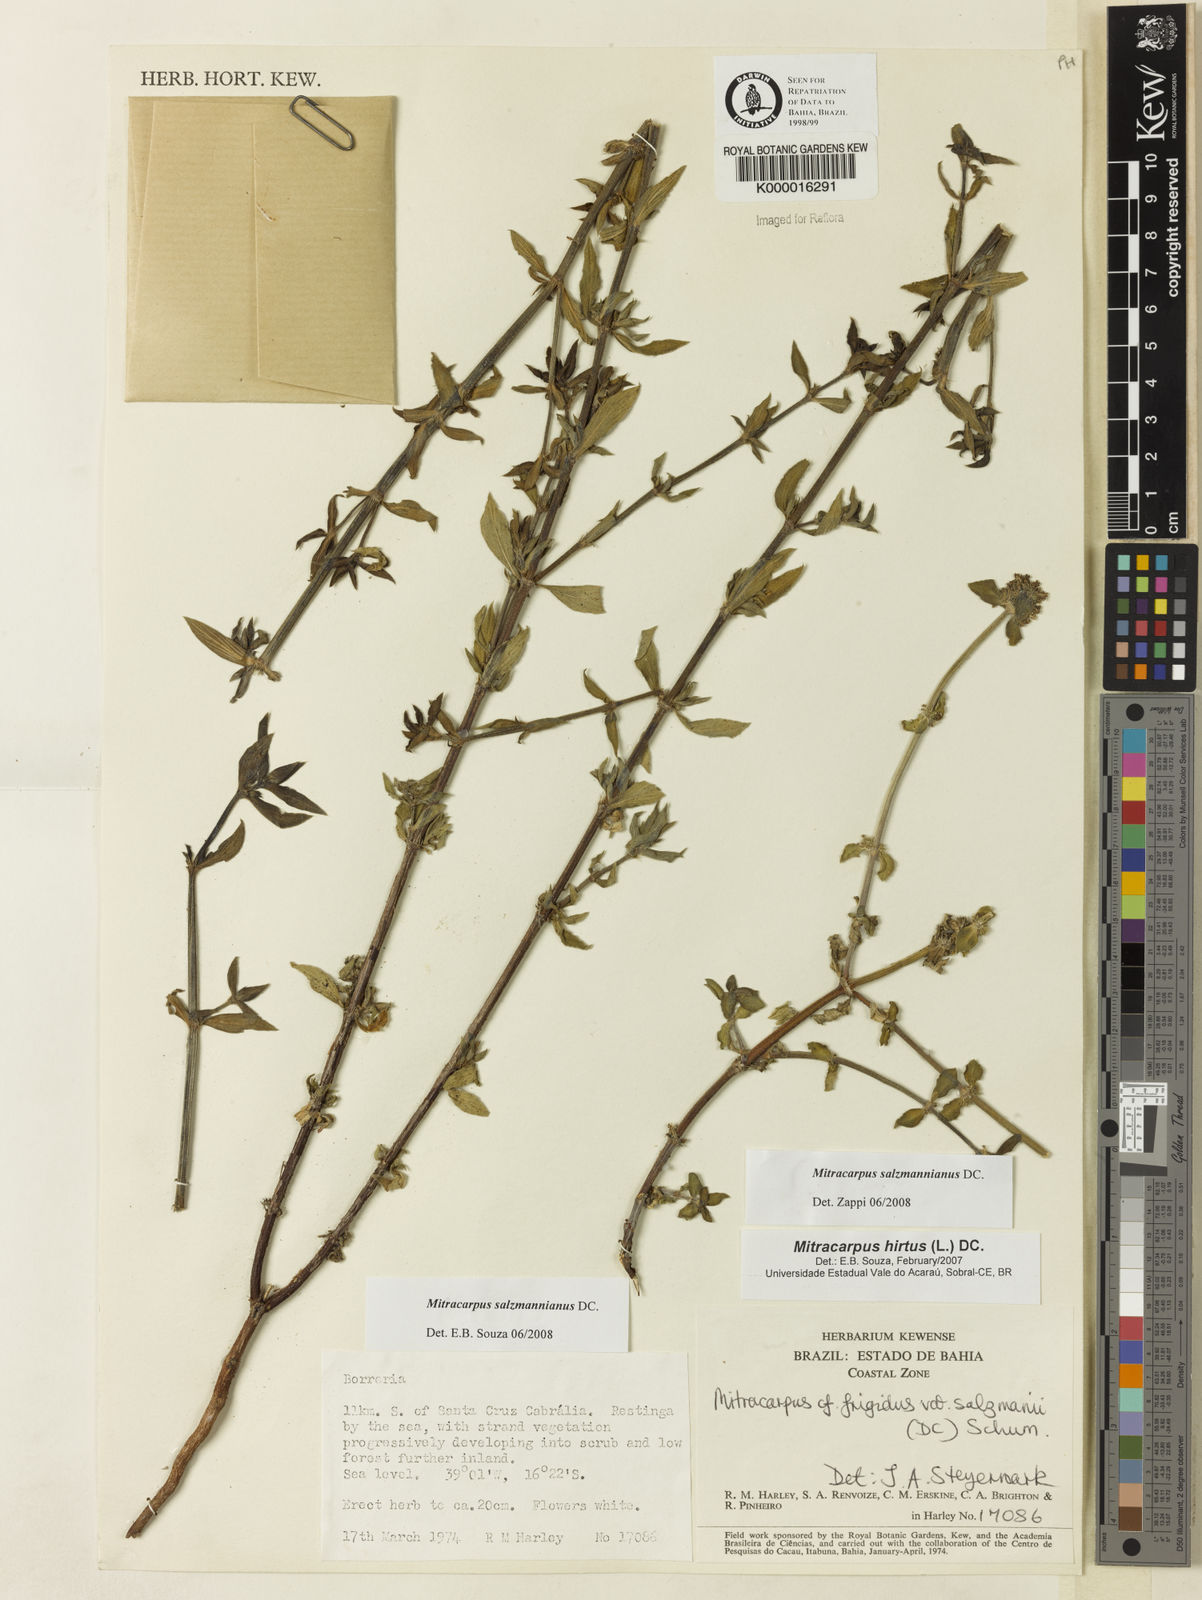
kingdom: Plantae
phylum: Tracheophyta
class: Magnoliopsida
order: Gentianales
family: Rubiaceae
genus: Mitracarpus
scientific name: Mitracarpus salzmannianus
